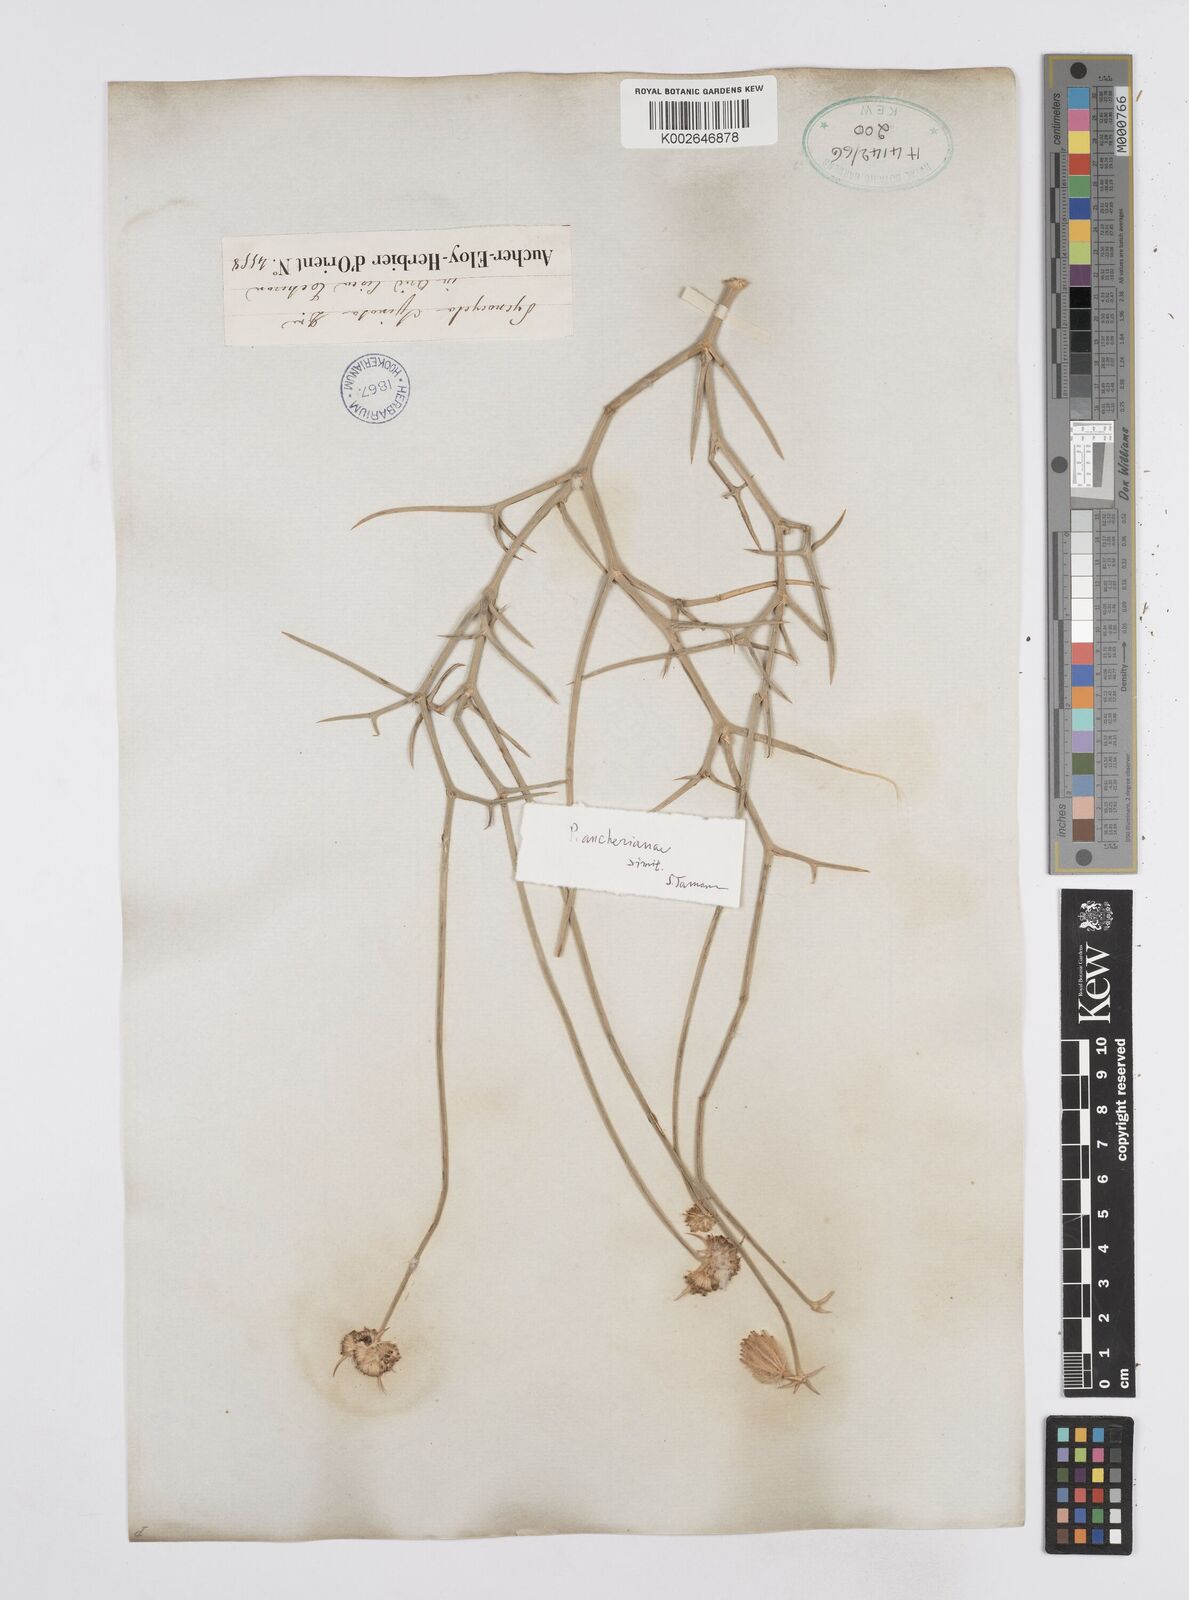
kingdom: Plantae
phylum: Tracheophyta
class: Magnoliopsida
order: Apiales
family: Apiaceae
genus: Pycnocycla
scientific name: Pycnocycla spinosa
